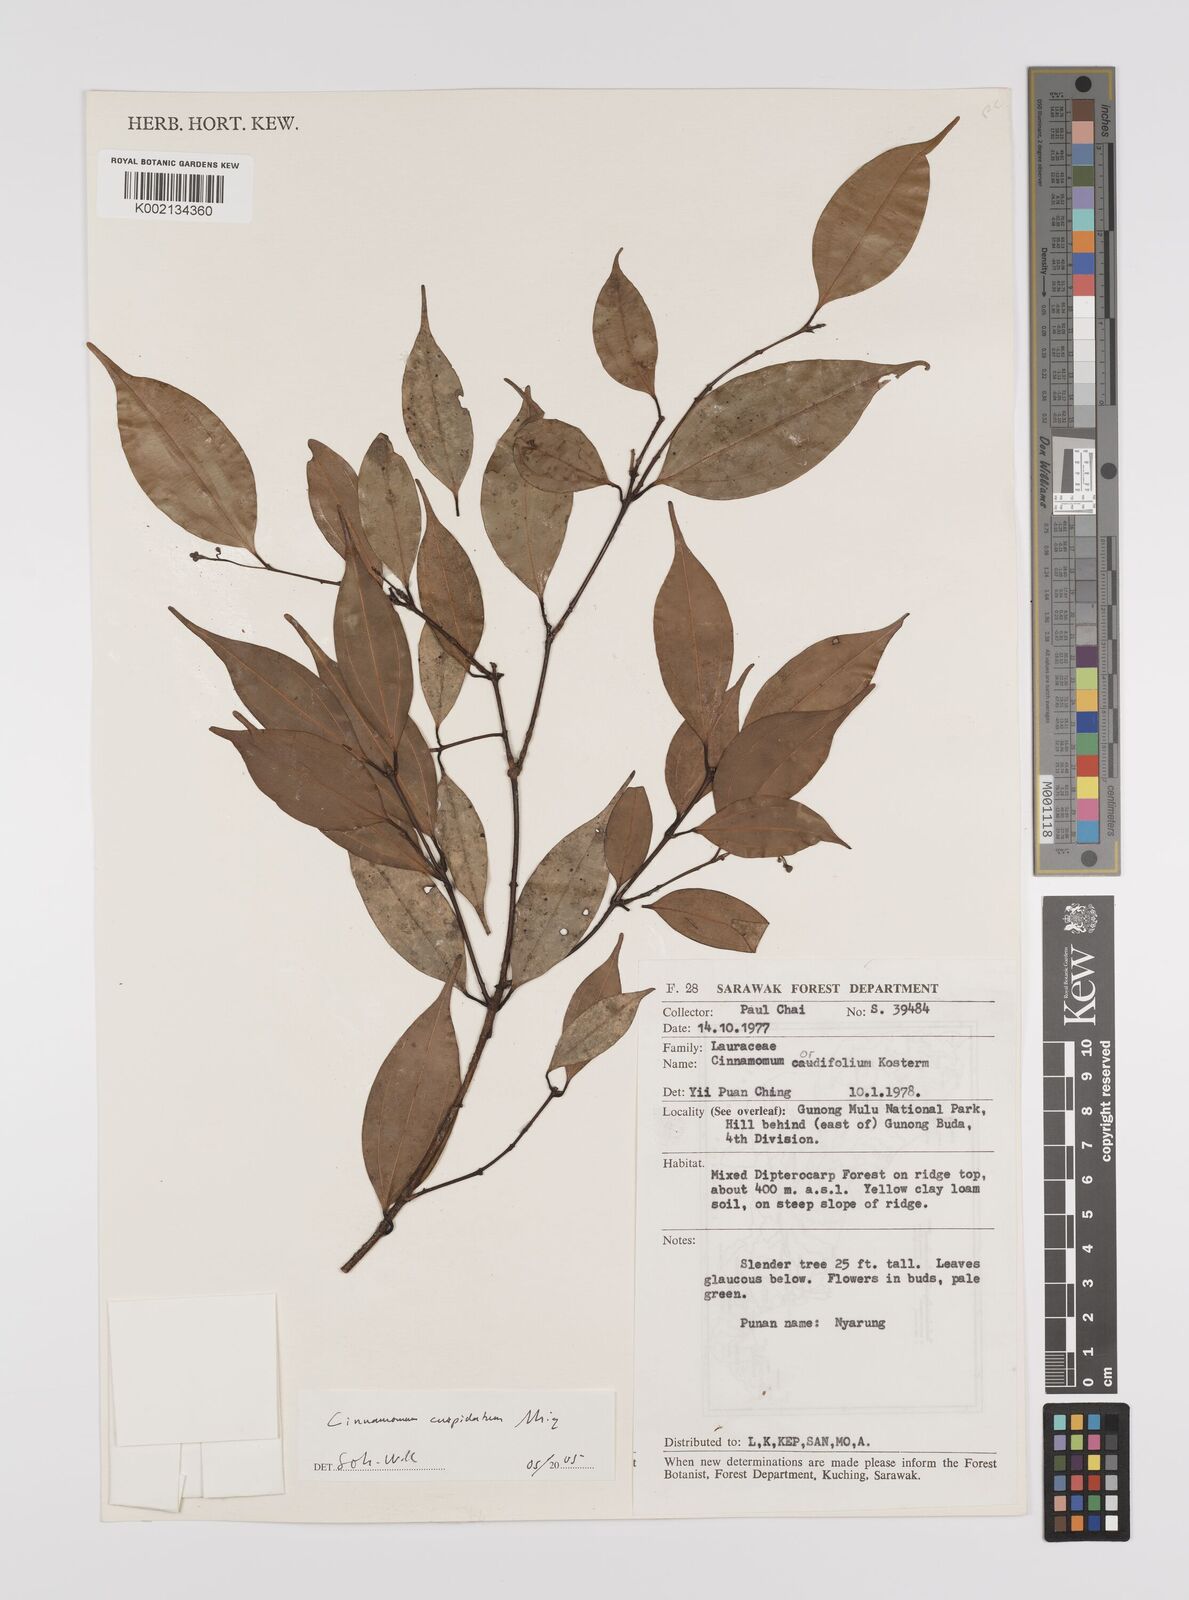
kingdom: Plantae
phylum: Tracheophyta
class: Magnoliopsida
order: Laurales
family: Lauraceae
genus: Cinnamomum
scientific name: Cinnamomum cuspidatum
